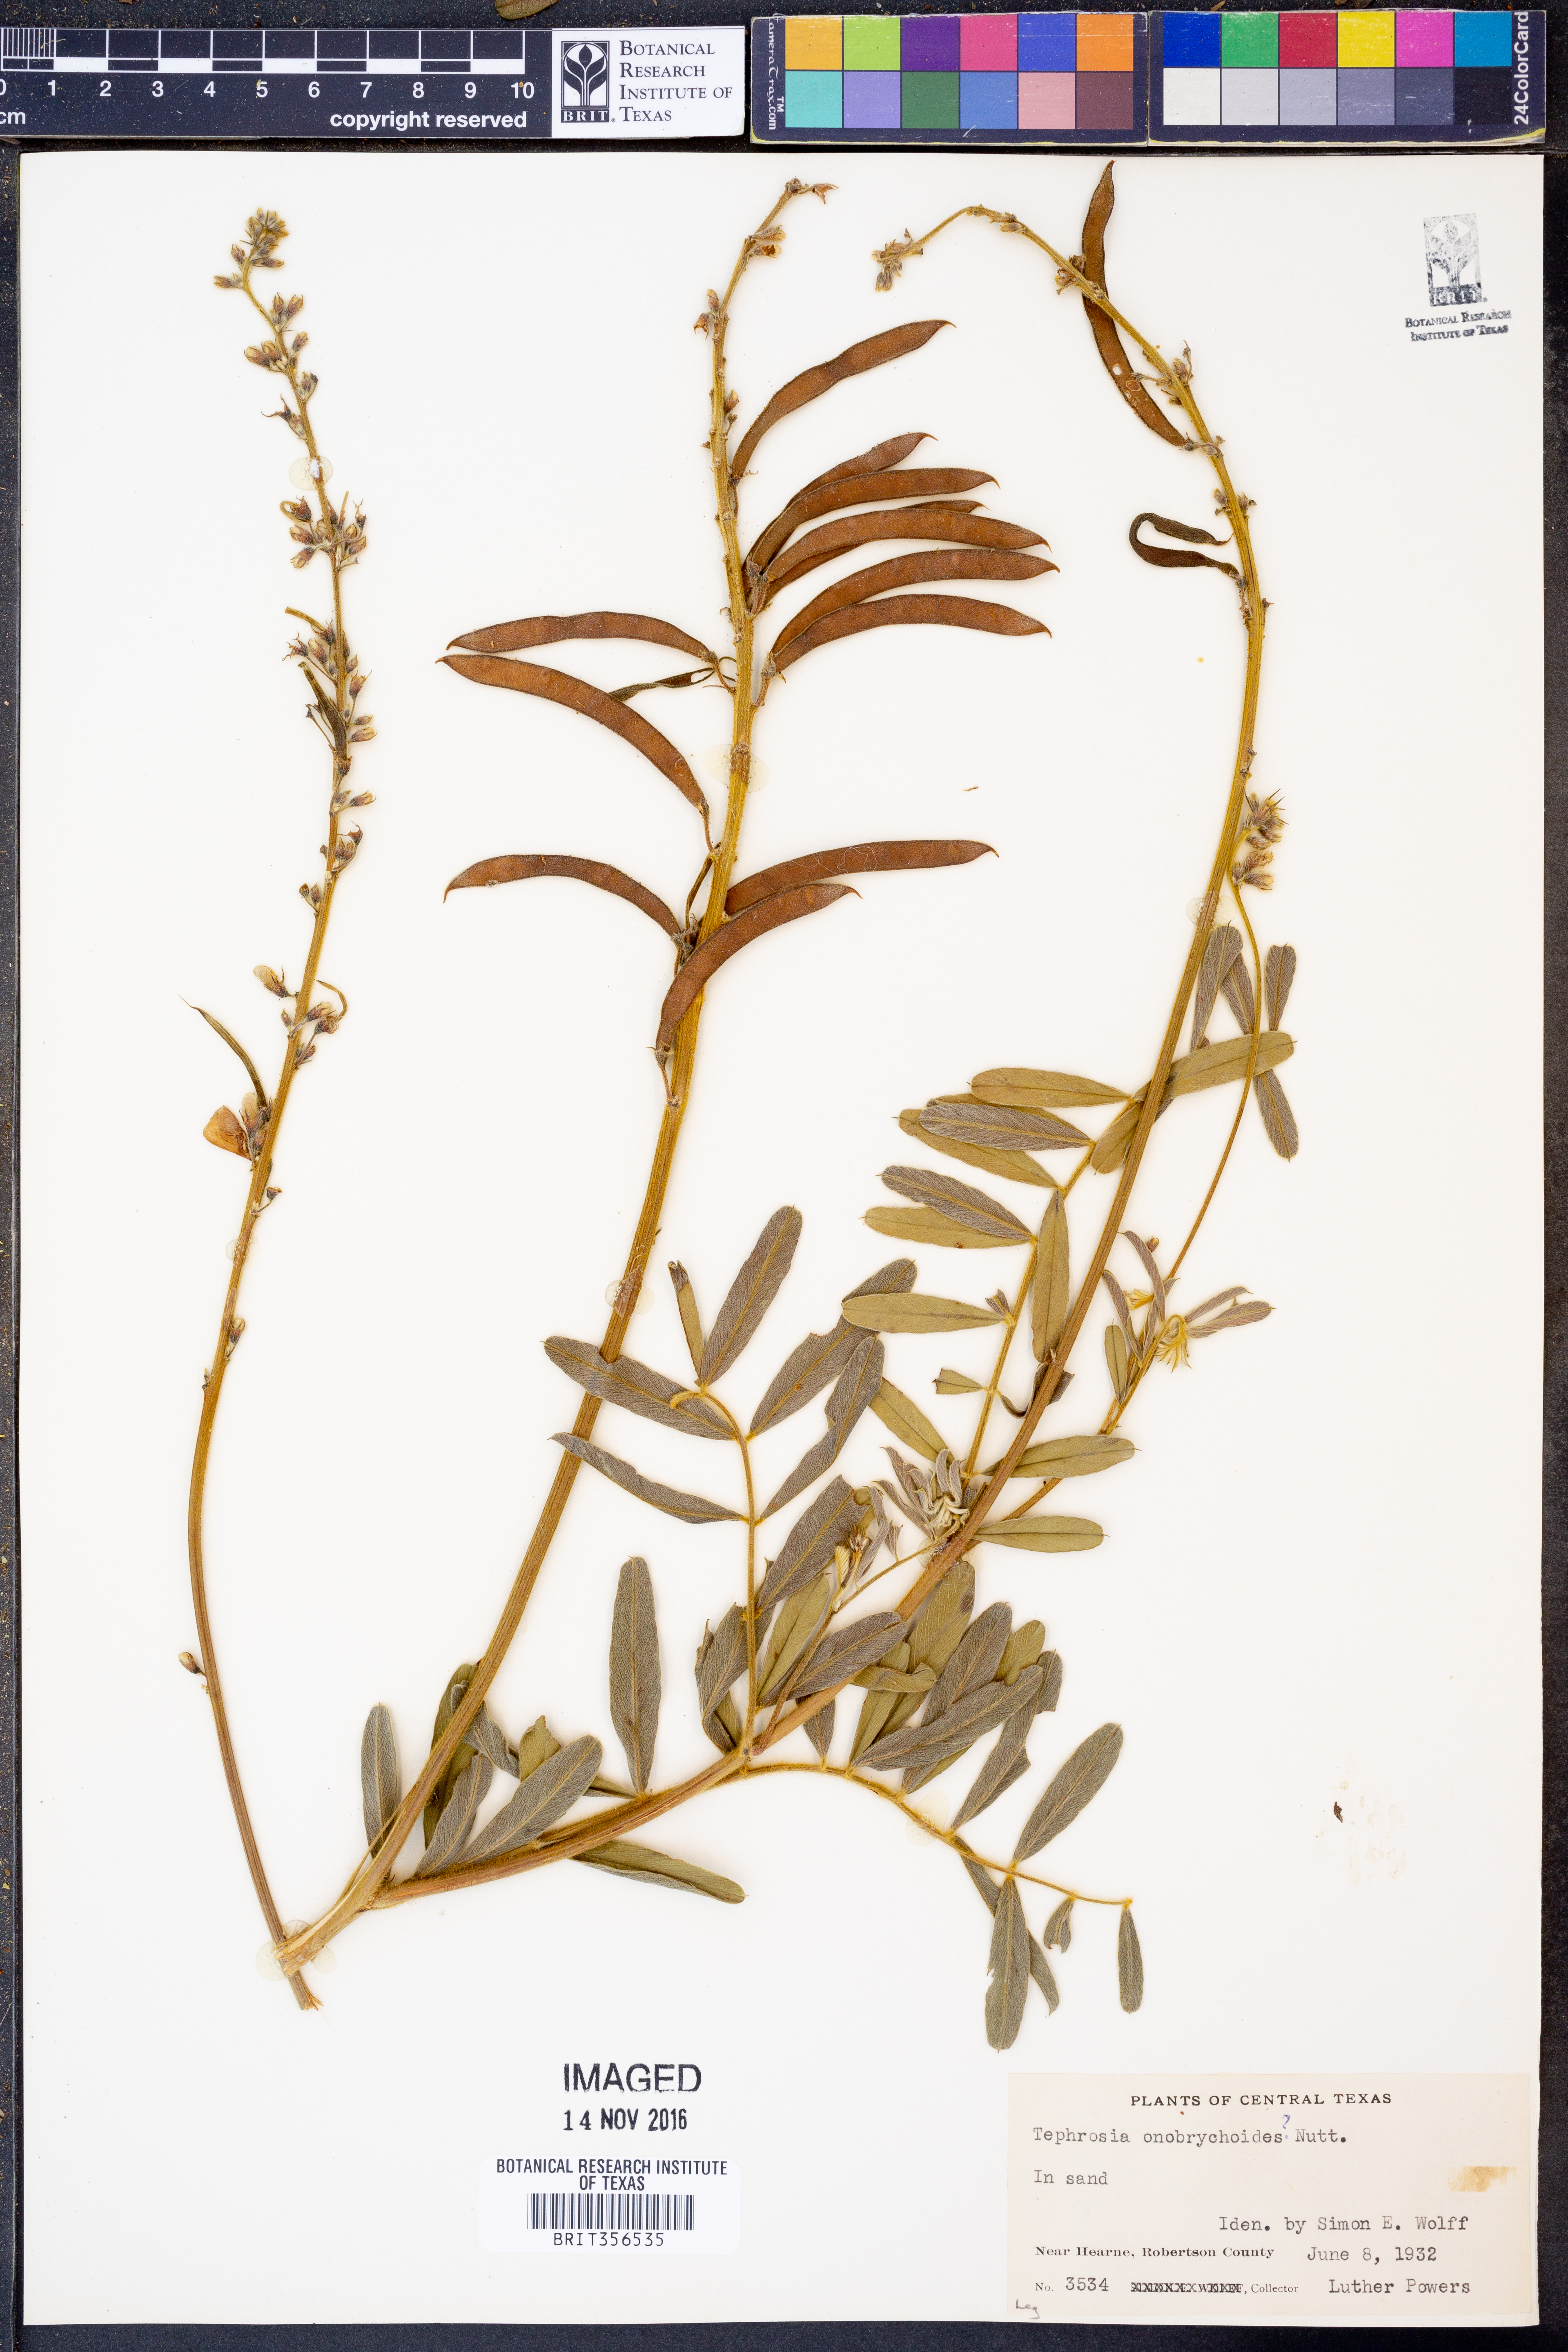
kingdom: Plantae
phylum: Tracheophyta
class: Magnoliopsida
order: Fabales
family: Fabaceae
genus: Tephrosia
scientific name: Tephrosia onobrychoides
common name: Multi-bloom hoary-pea
